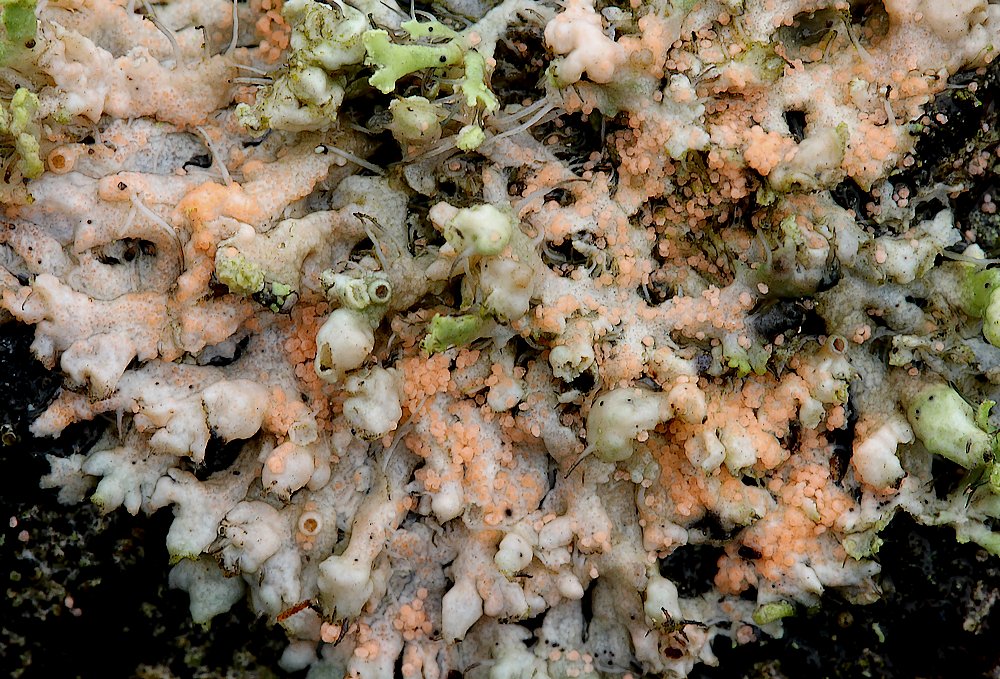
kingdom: Fungi
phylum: Basidiomycota
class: Agaricomycetes
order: Corticiales
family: Corticiaceae
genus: Erythricium
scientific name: Erythricium aurantiacum
